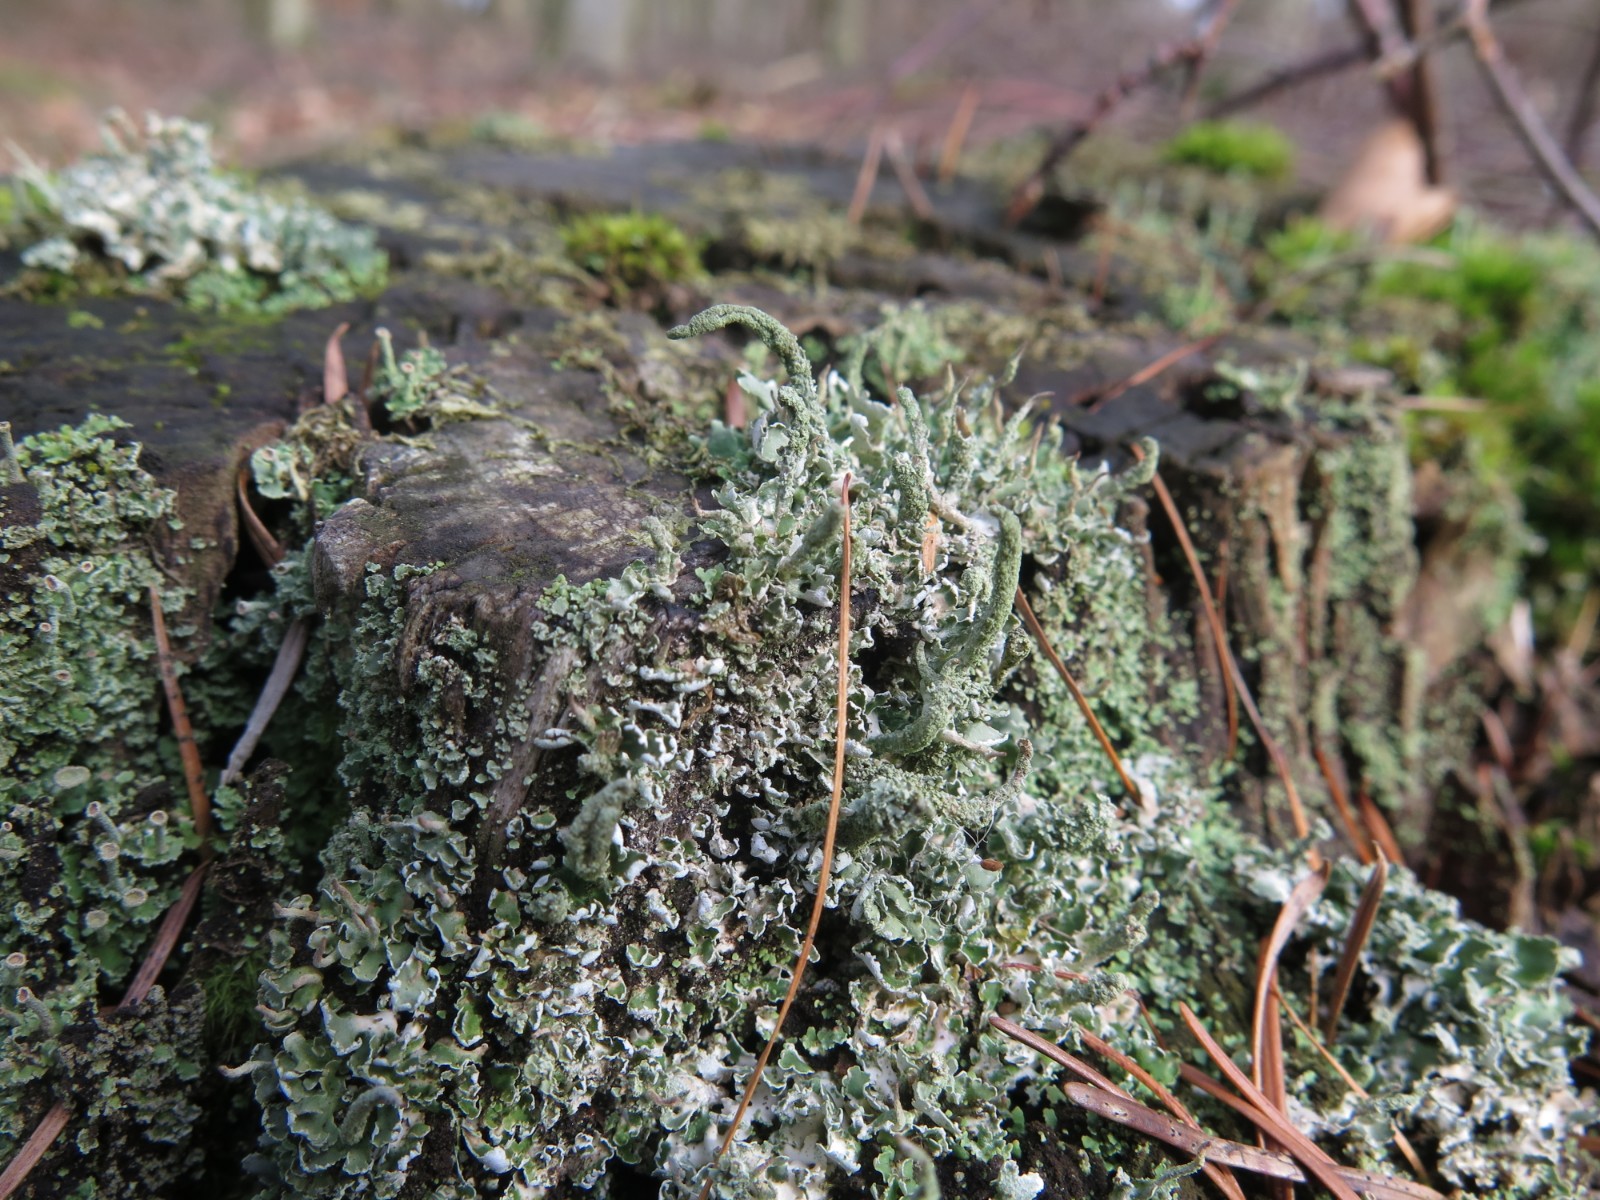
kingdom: Fungi
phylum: Ascomycota
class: Lecanoromycetes
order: Lecanorales
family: Cladoniaceae
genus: Cladonia
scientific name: Cladonia ochrochlora
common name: stød-bægerlav
